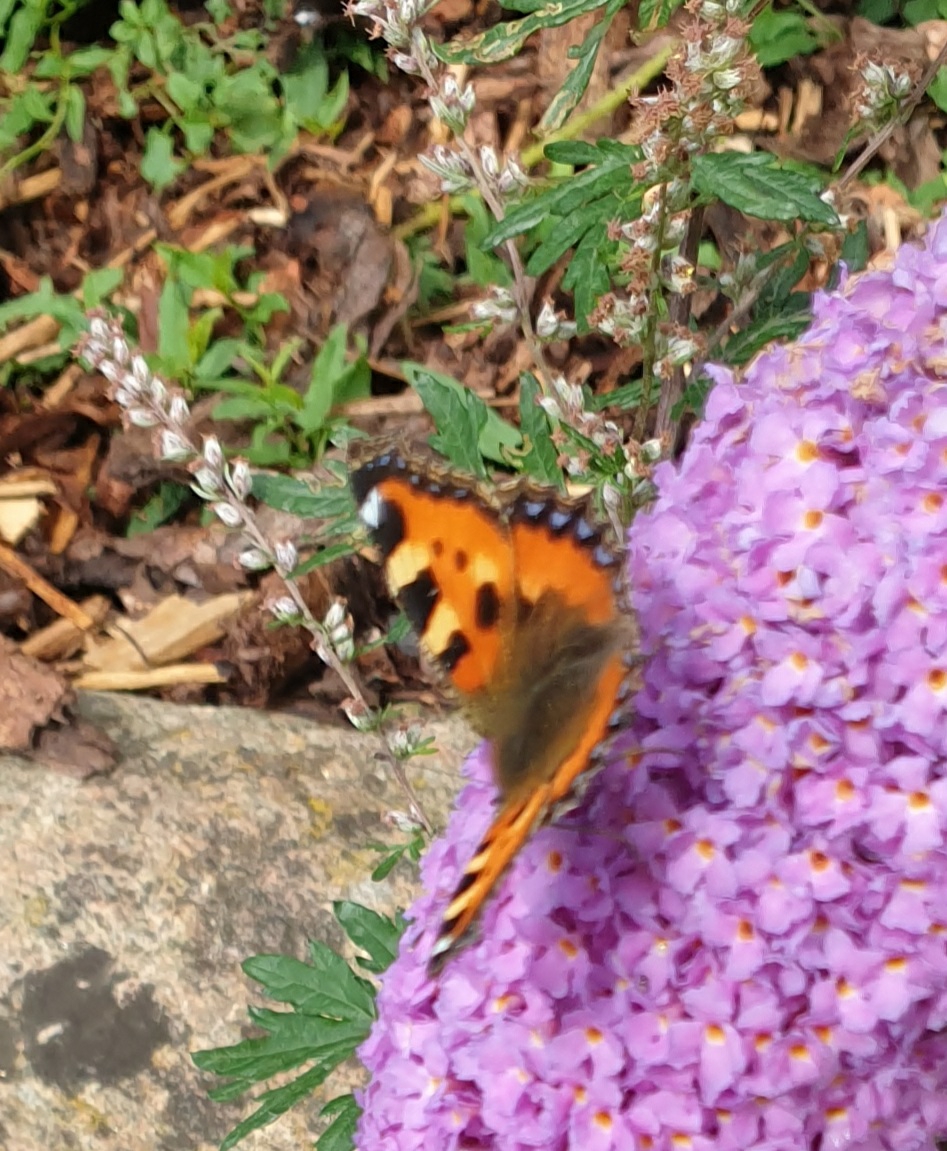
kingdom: Animalia
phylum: Arthropoda
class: Insecta
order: Lepidoptera
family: Nymphalidae
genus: Aglais
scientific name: Aglais urticae
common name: Nældens takvinge
